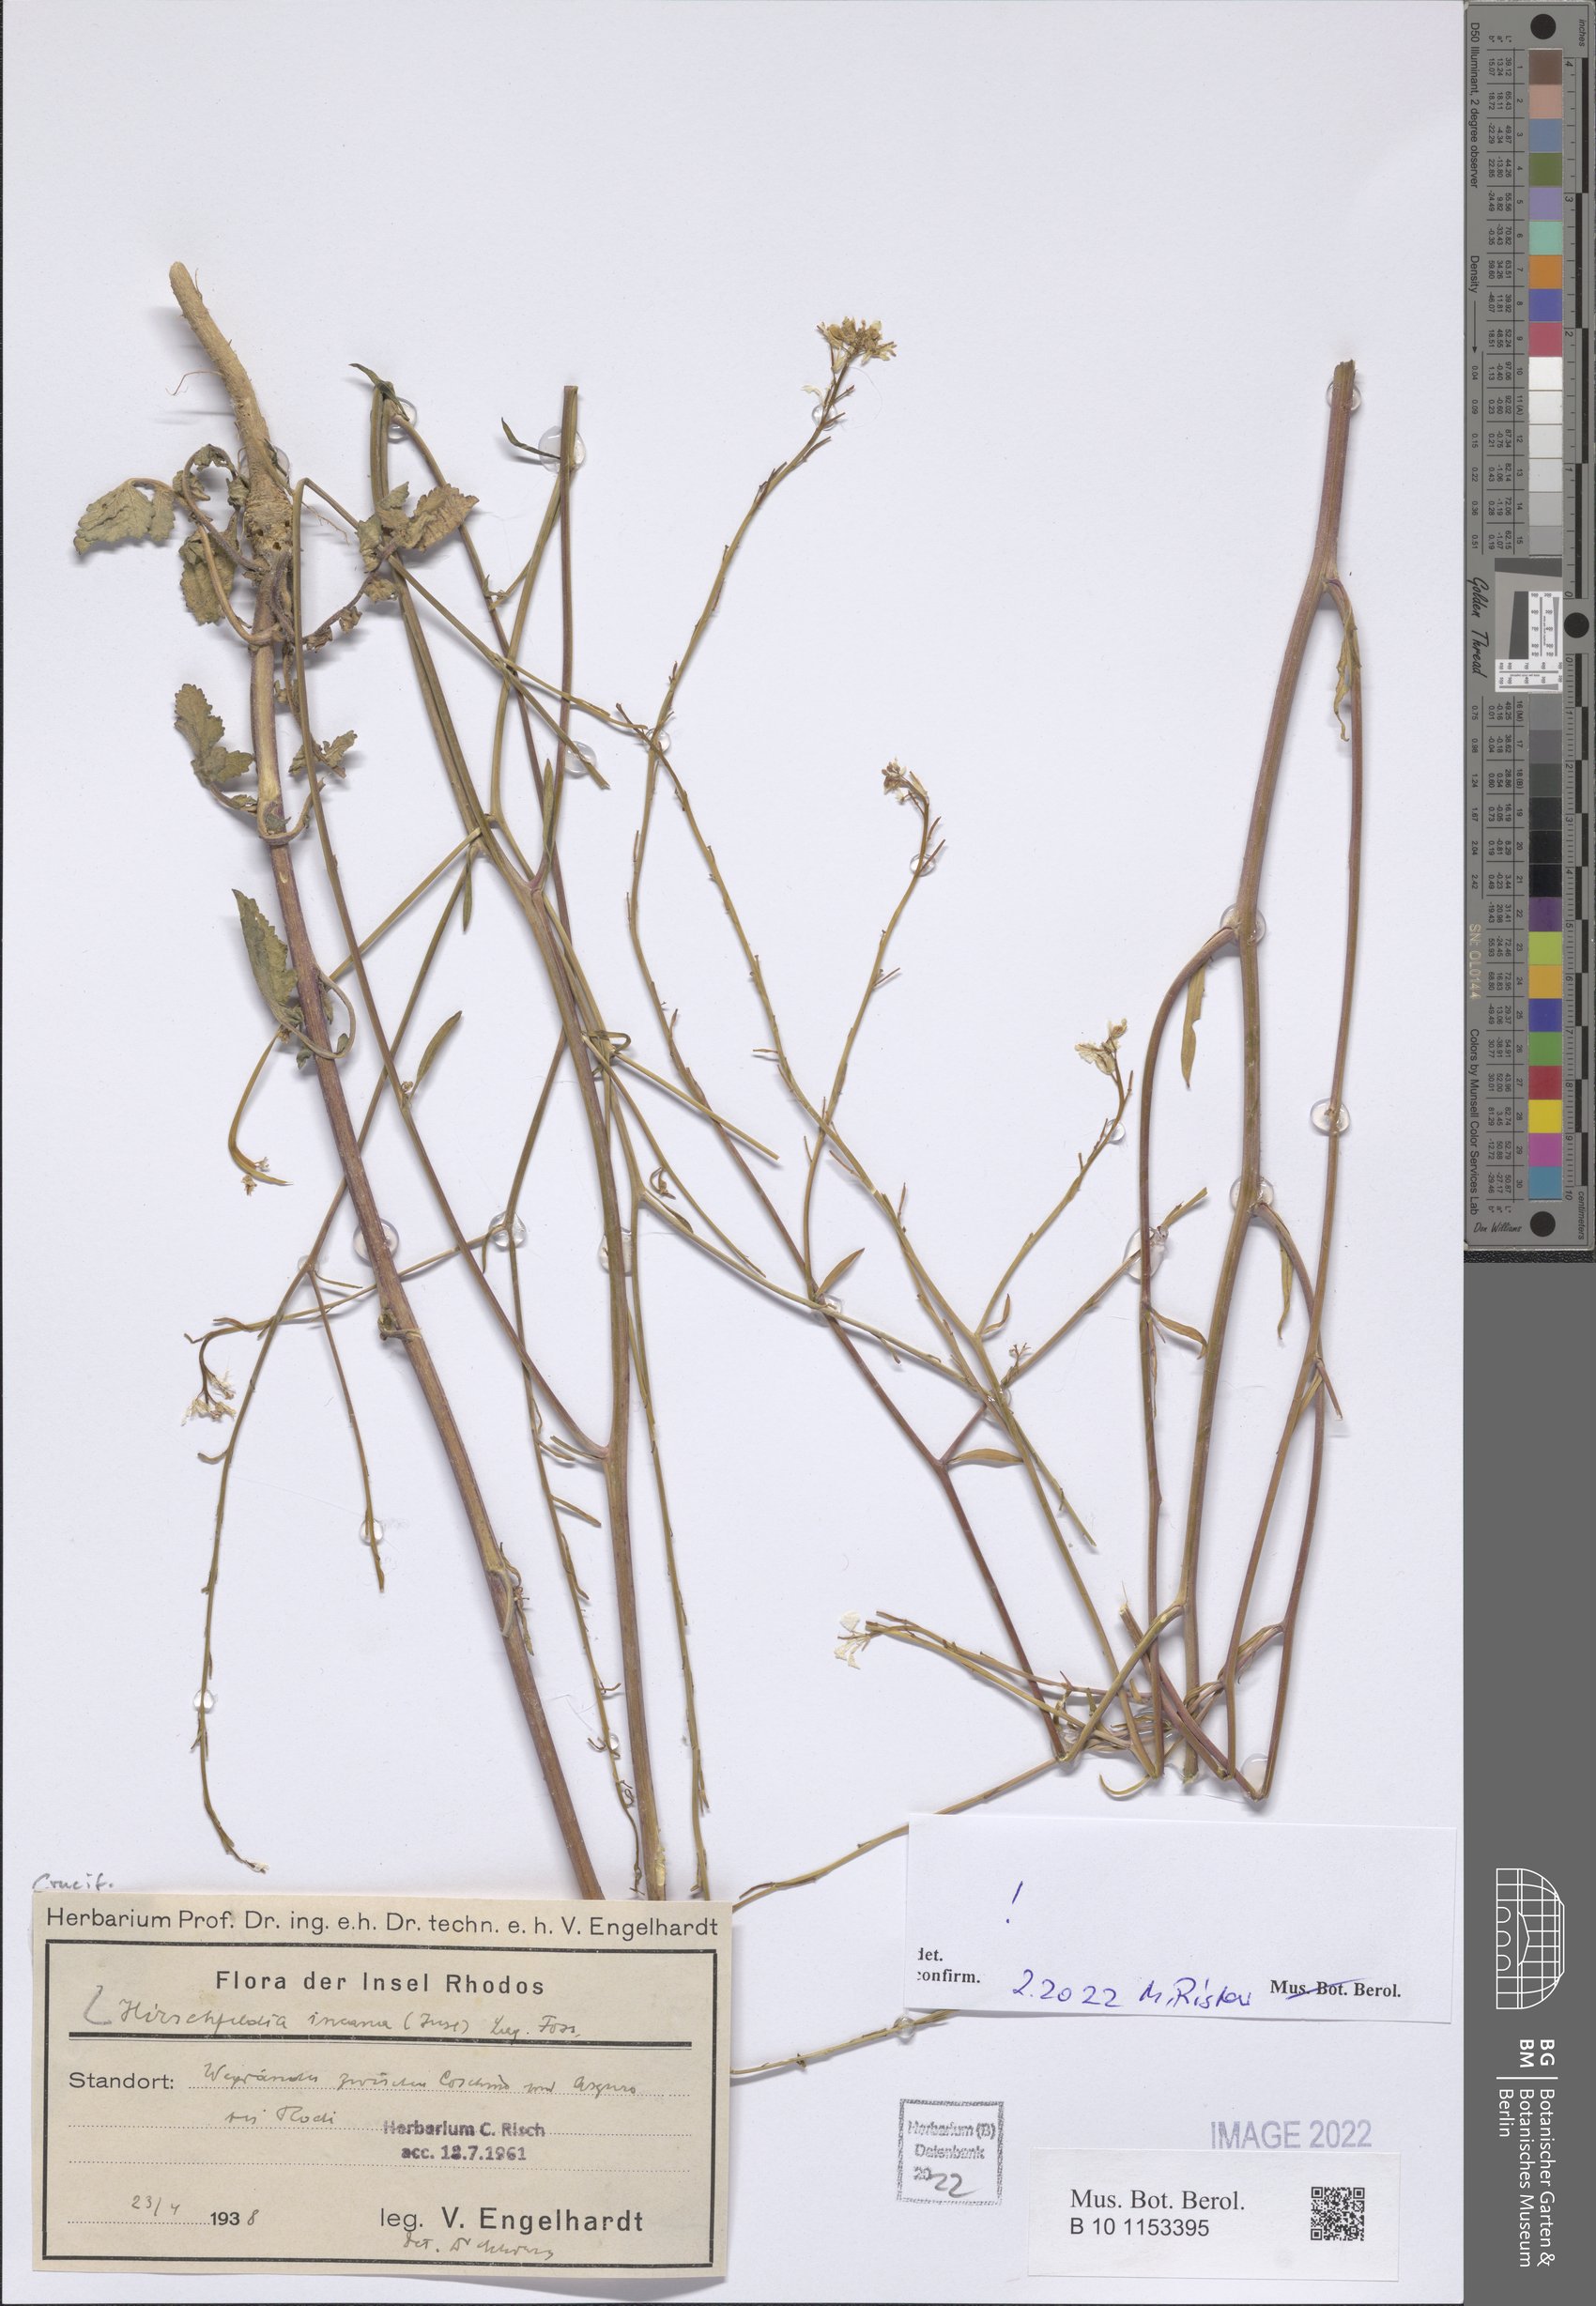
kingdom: Plantae
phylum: Tracheophyta
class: Magnoliopsida
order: Brassicales
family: Brassicaceae
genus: Hirschfeldia
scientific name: Hirschfeldia incana
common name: Hoary mustard
